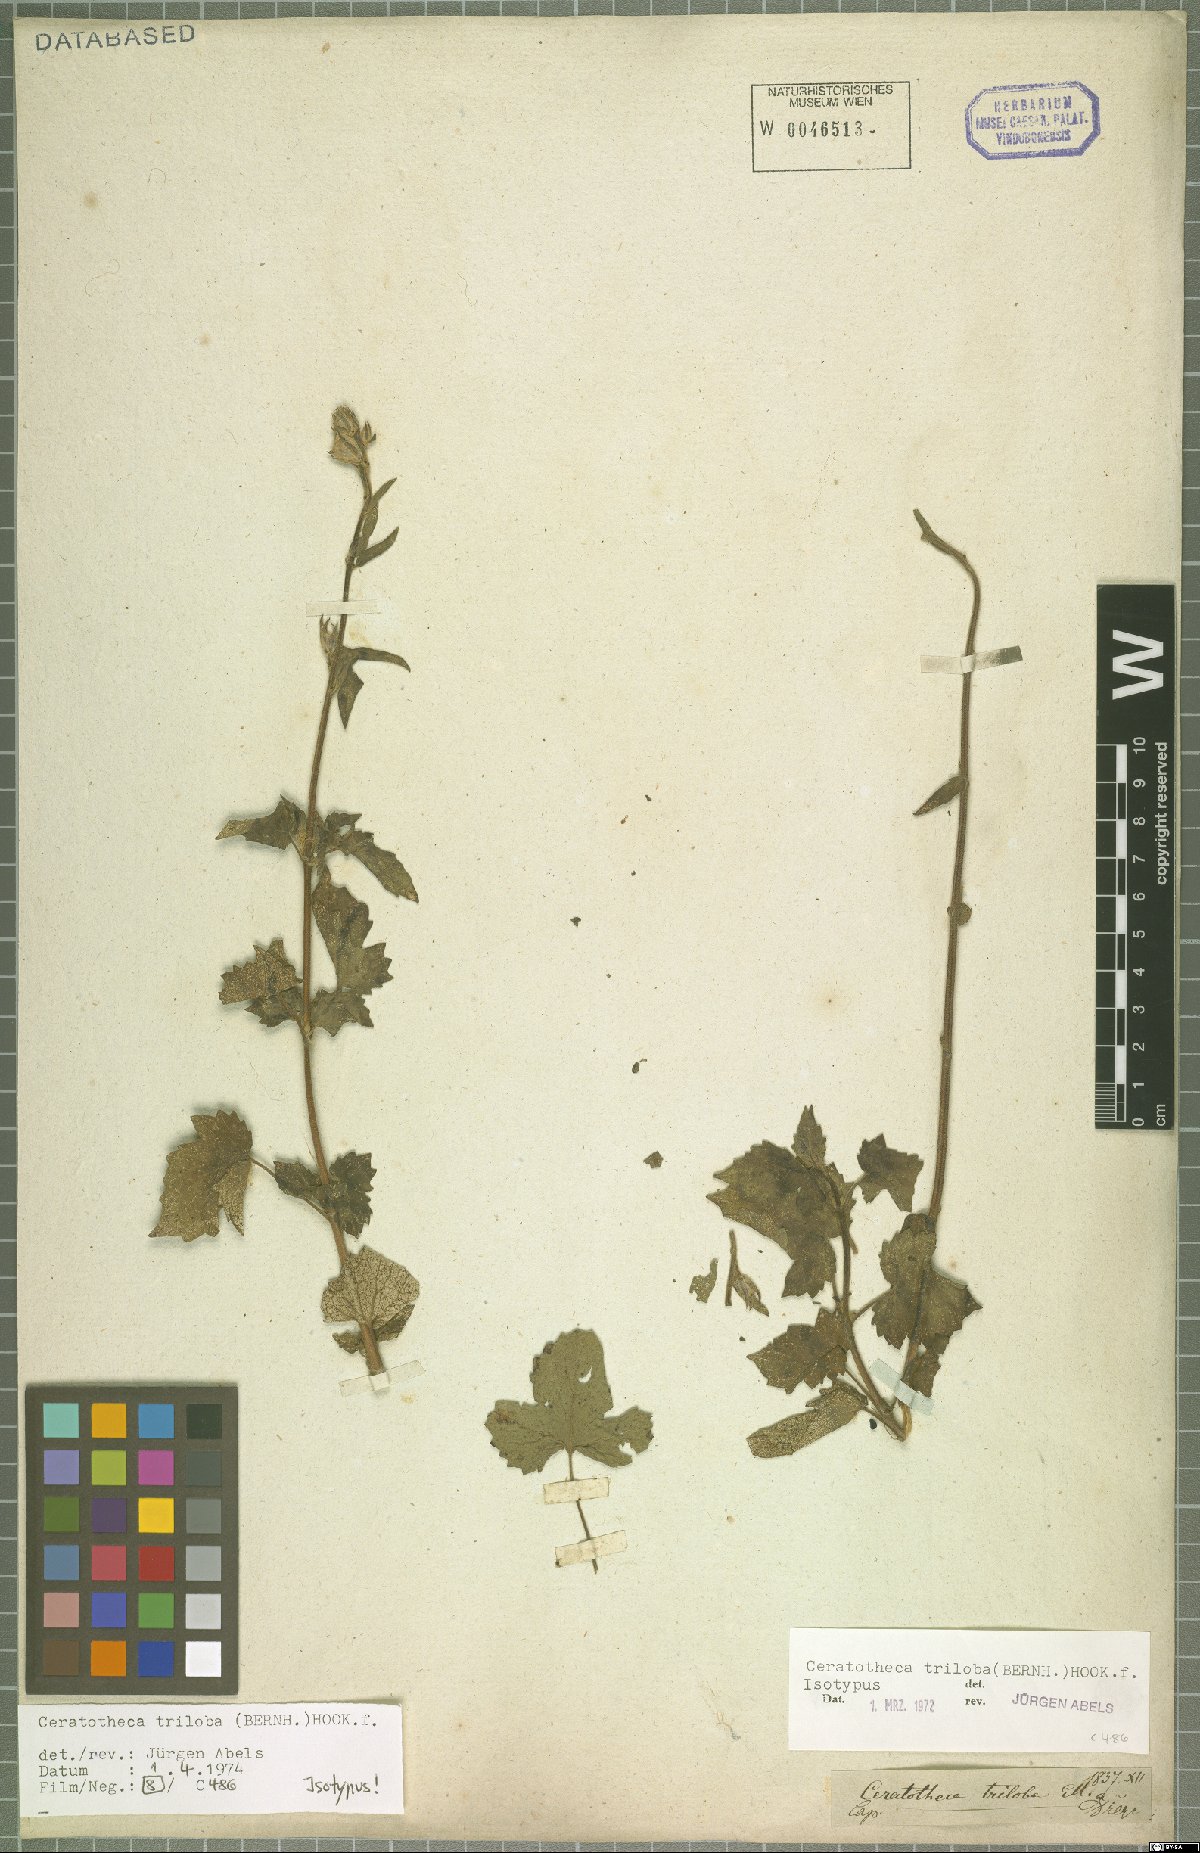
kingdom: Plantae
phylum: Tracheophyta
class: Magnoliopsida
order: Lamiales
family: Pedaliaceae
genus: Sesamum
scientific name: Sesamum trilobum
